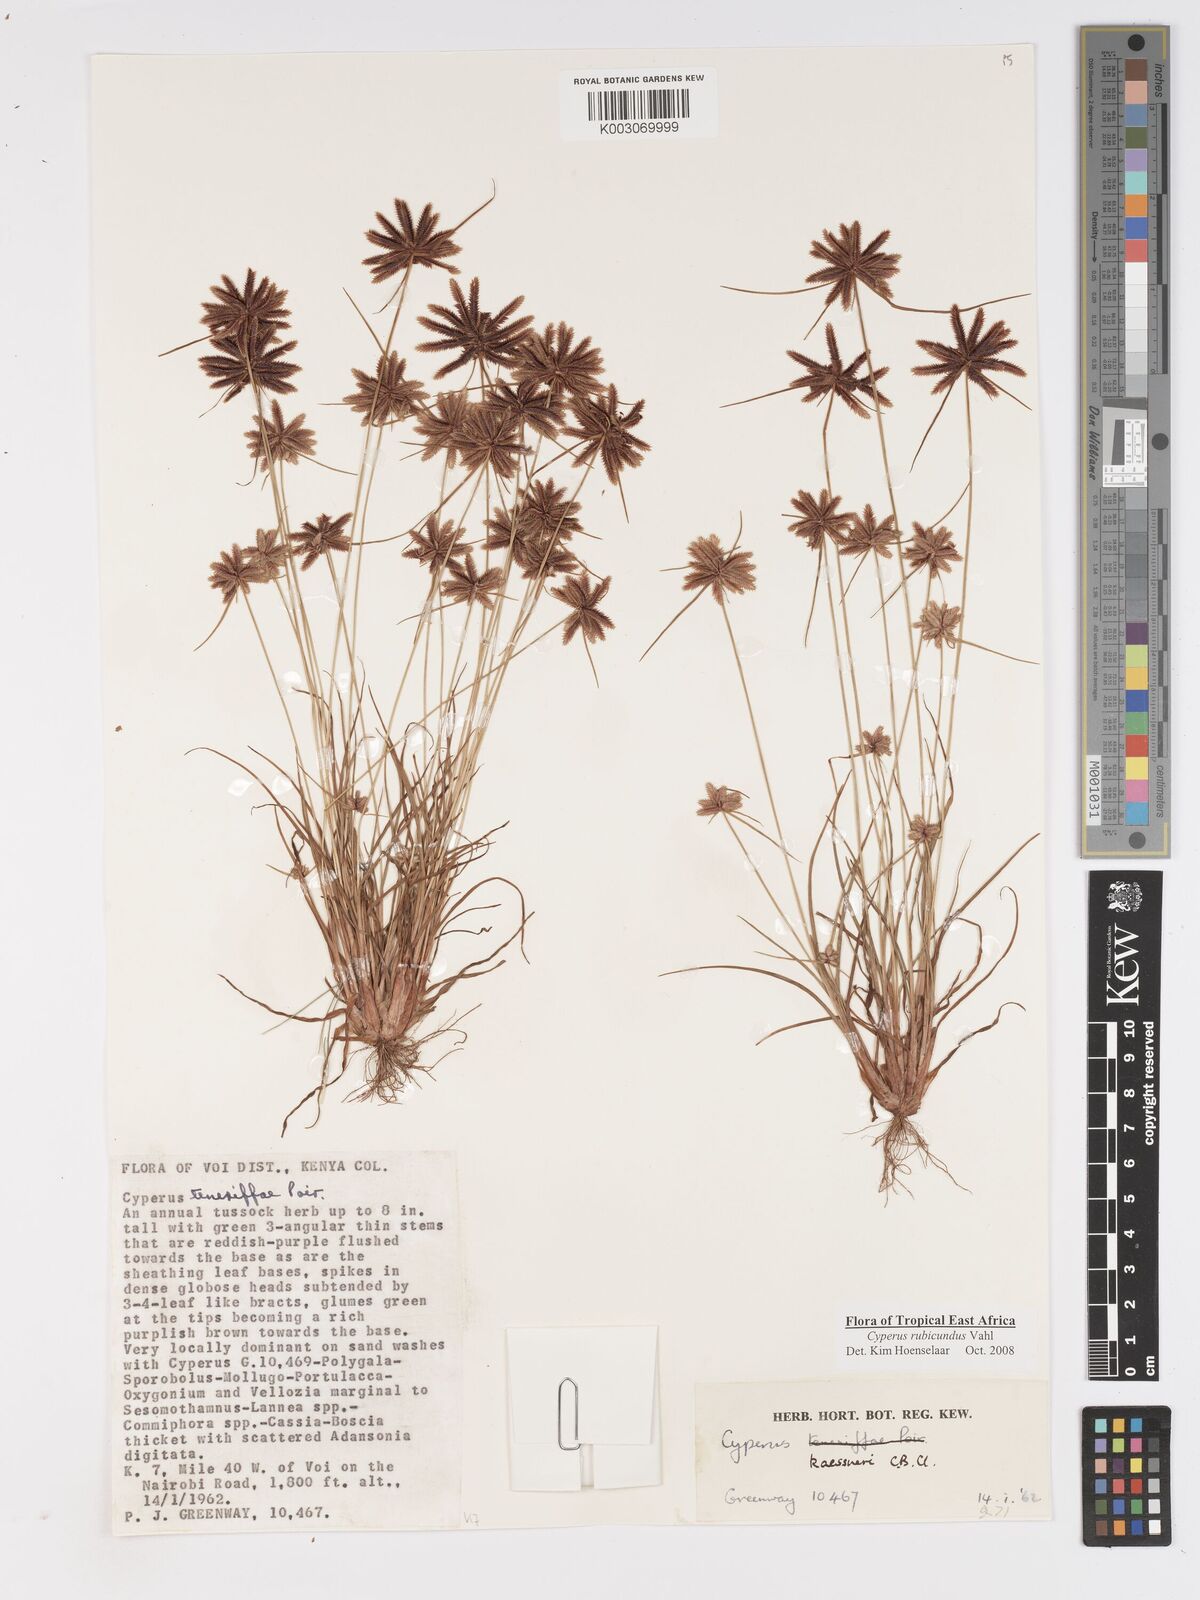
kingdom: Plantae
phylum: Tracheophyta
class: Liliopsida
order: Poales
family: Cyperaceae
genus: Cyperus
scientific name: Cyperus rubicundus
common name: Coco-grass
